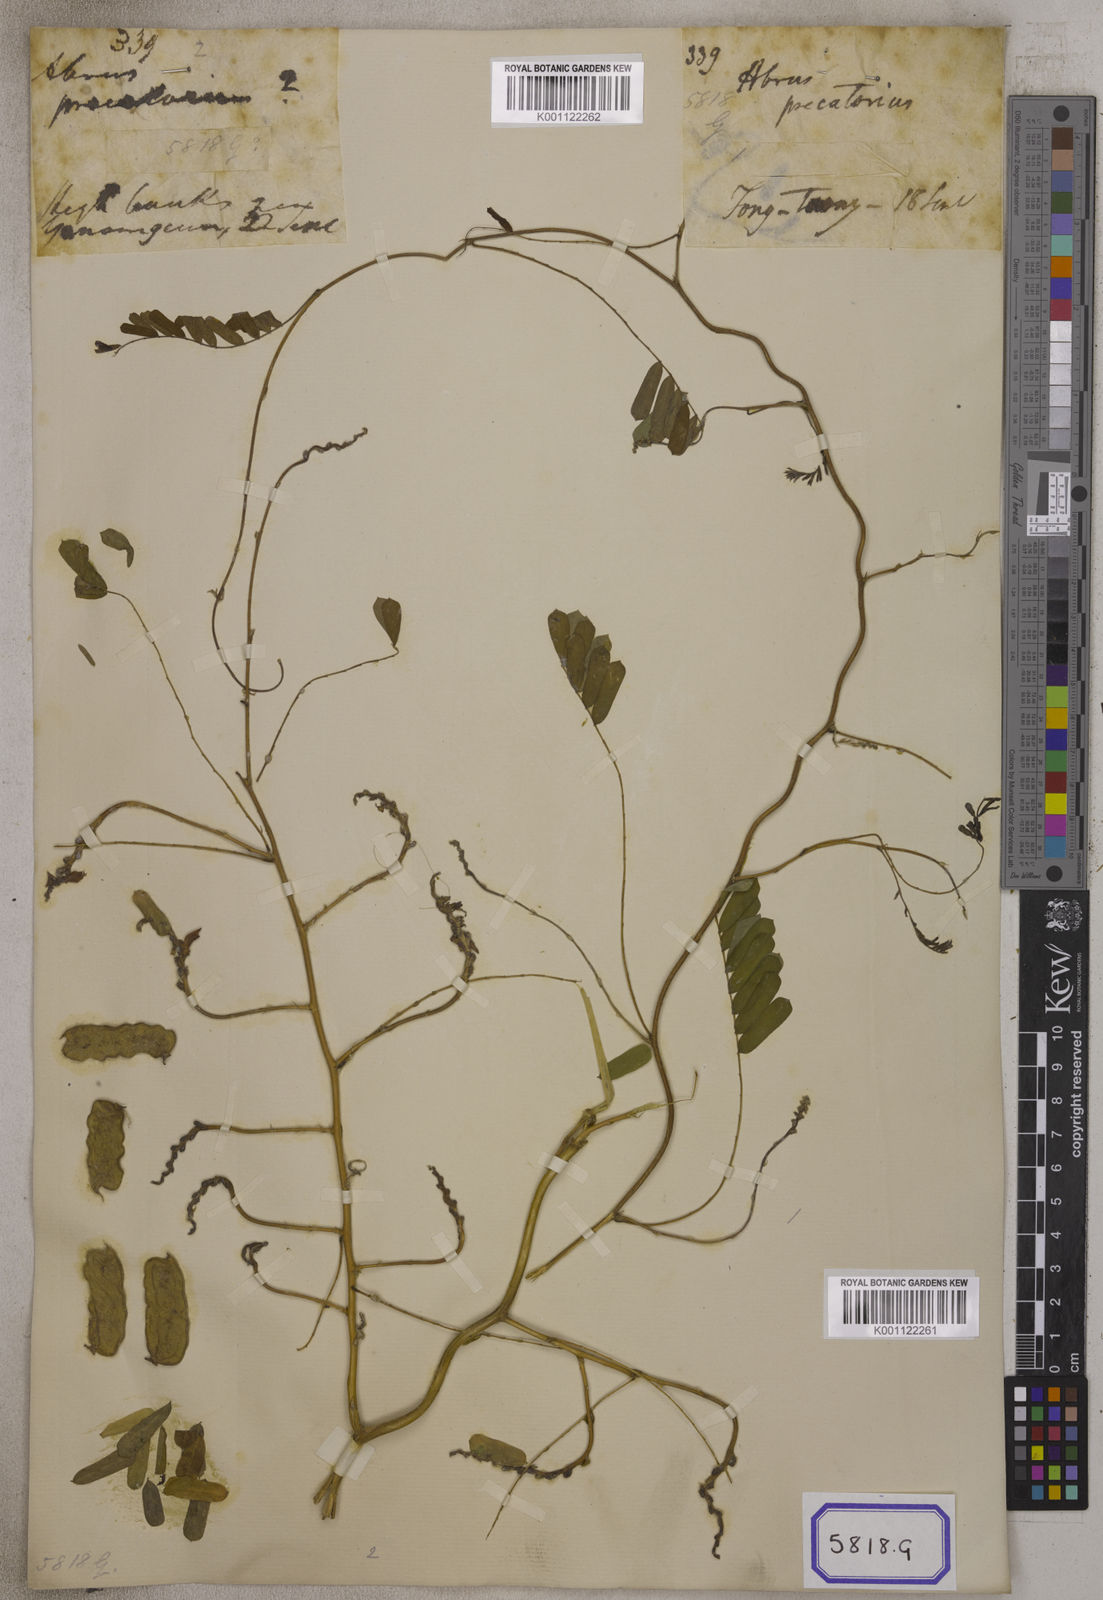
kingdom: Plantae
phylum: Tracheophyta
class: Magnoliopsida
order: Fabales
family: Fabaceae
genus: Abrus
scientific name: Abrus precatorius
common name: Rosarypea
